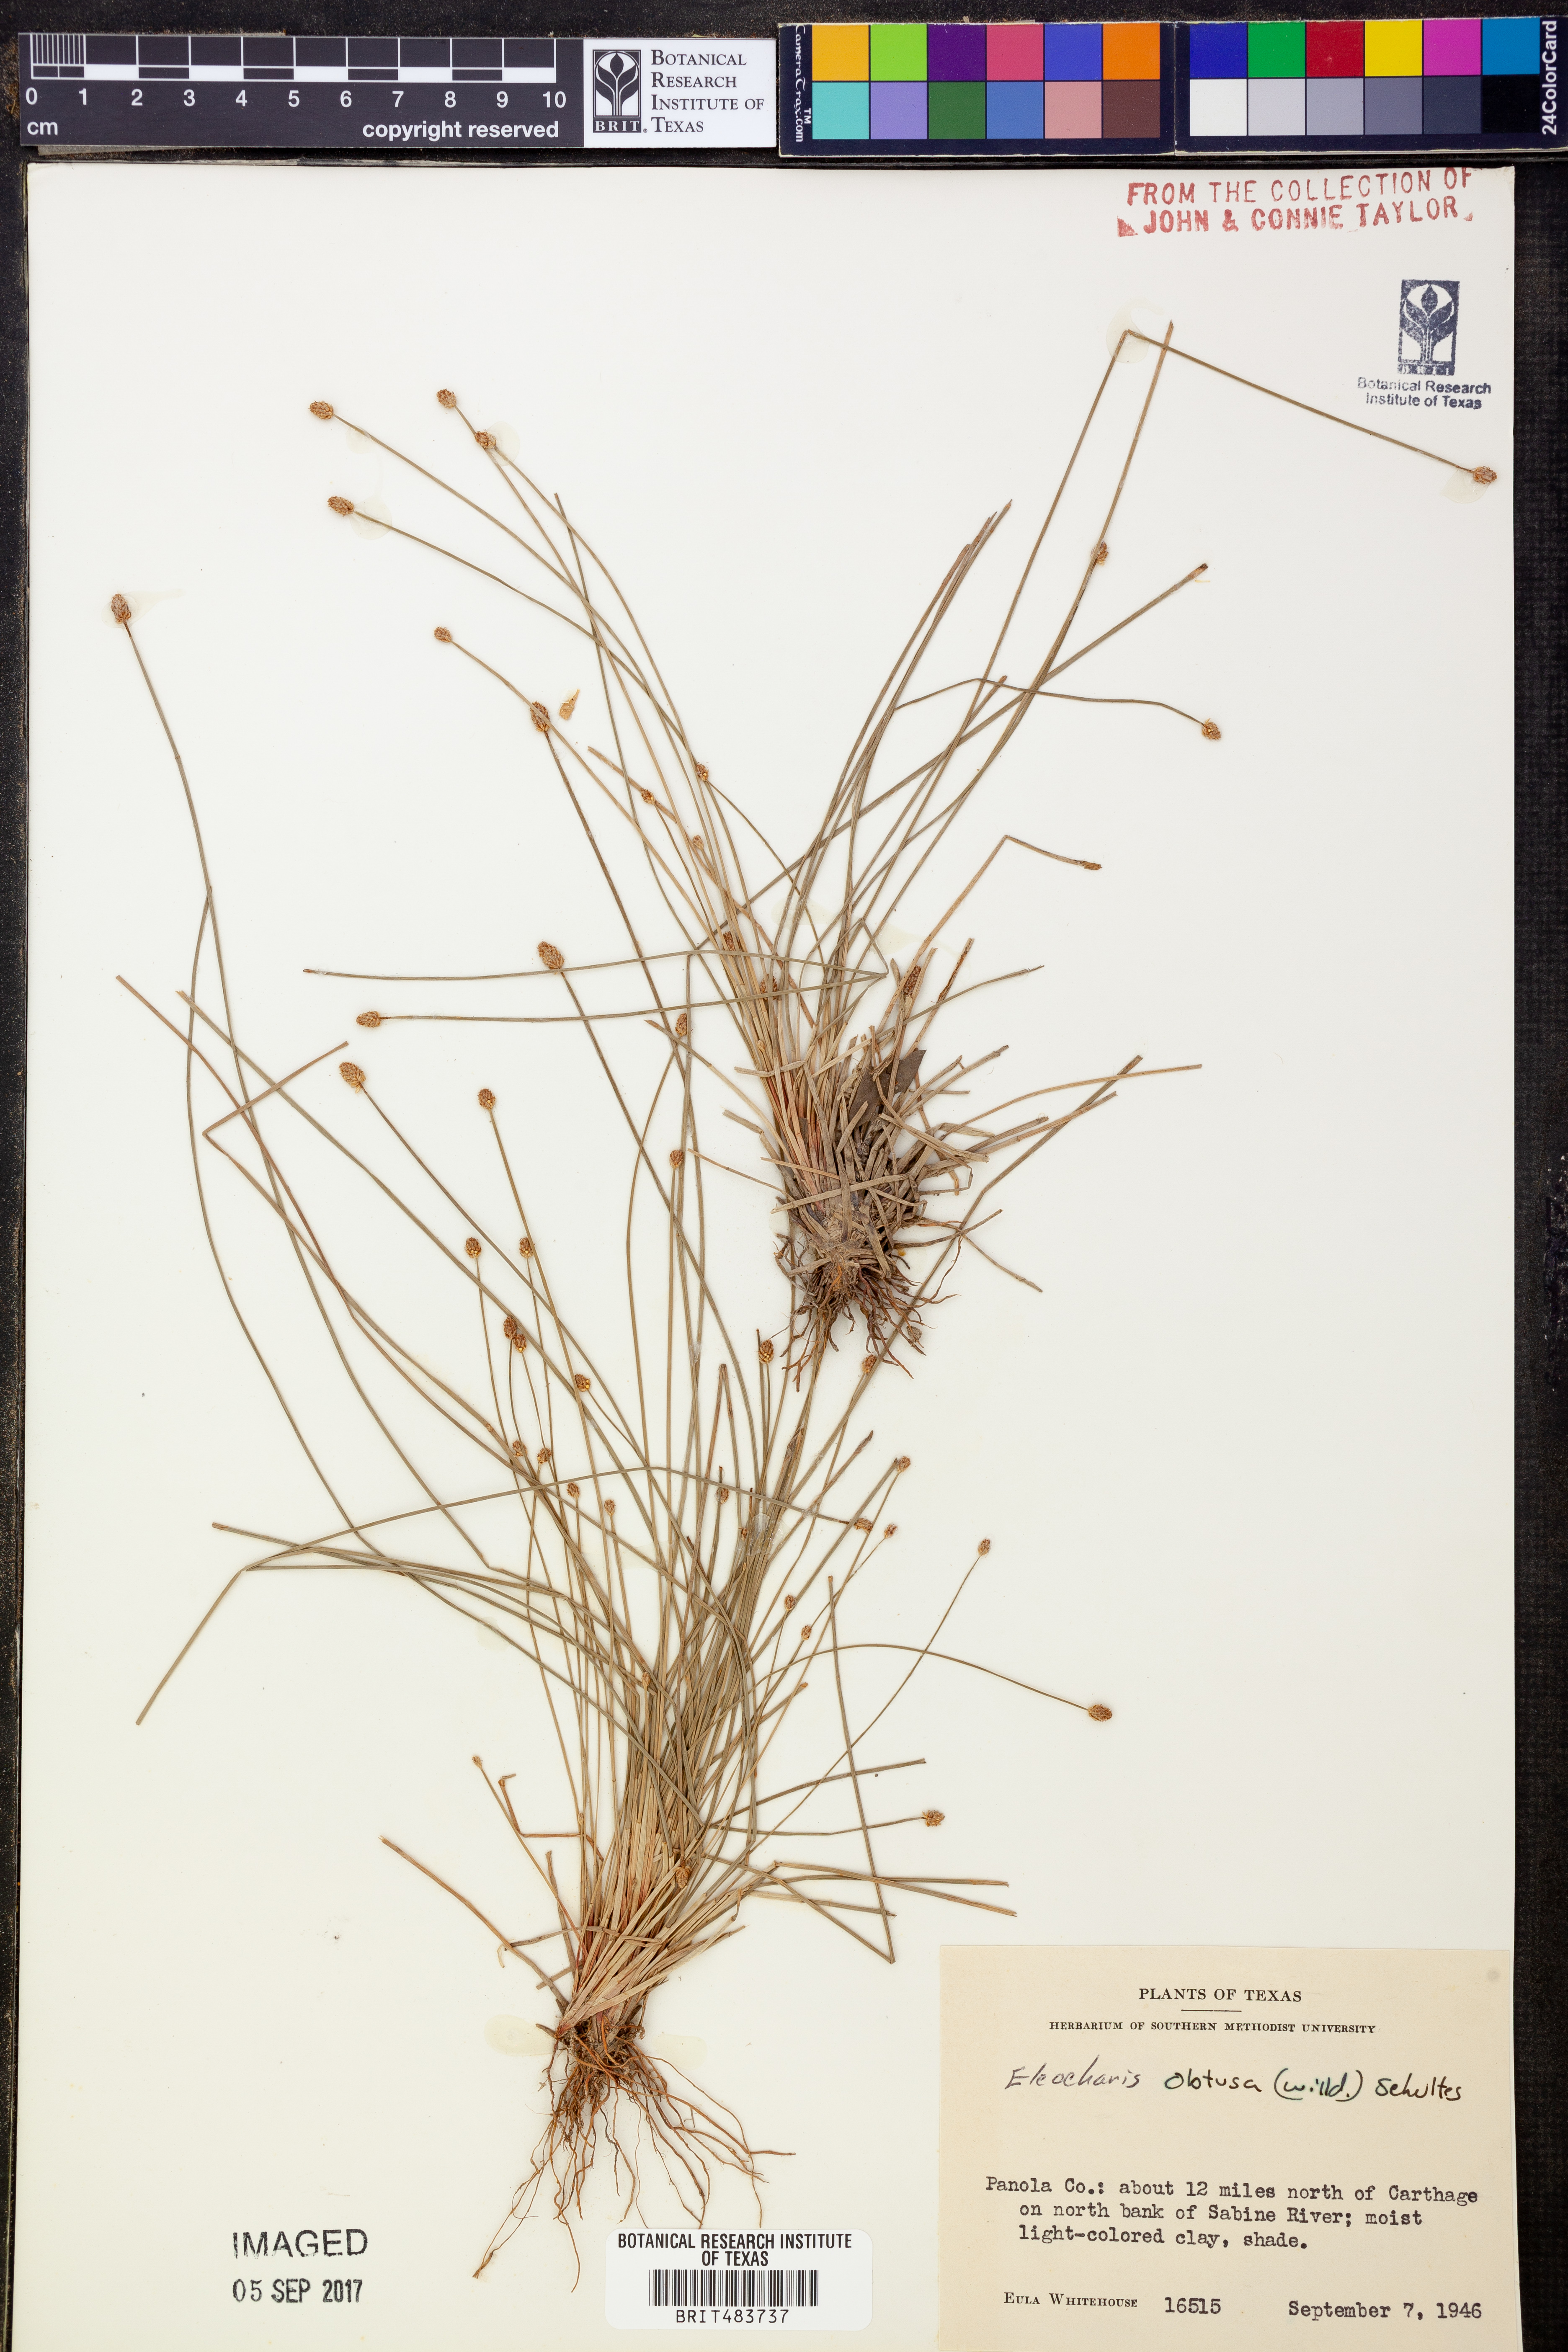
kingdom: Plantae
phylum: Tracheophyta
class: Liliopsida
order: Poales
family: Cyperaceae
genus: Eleocharis
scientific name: Eleocharis obtusa
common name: Blunt spikerush
